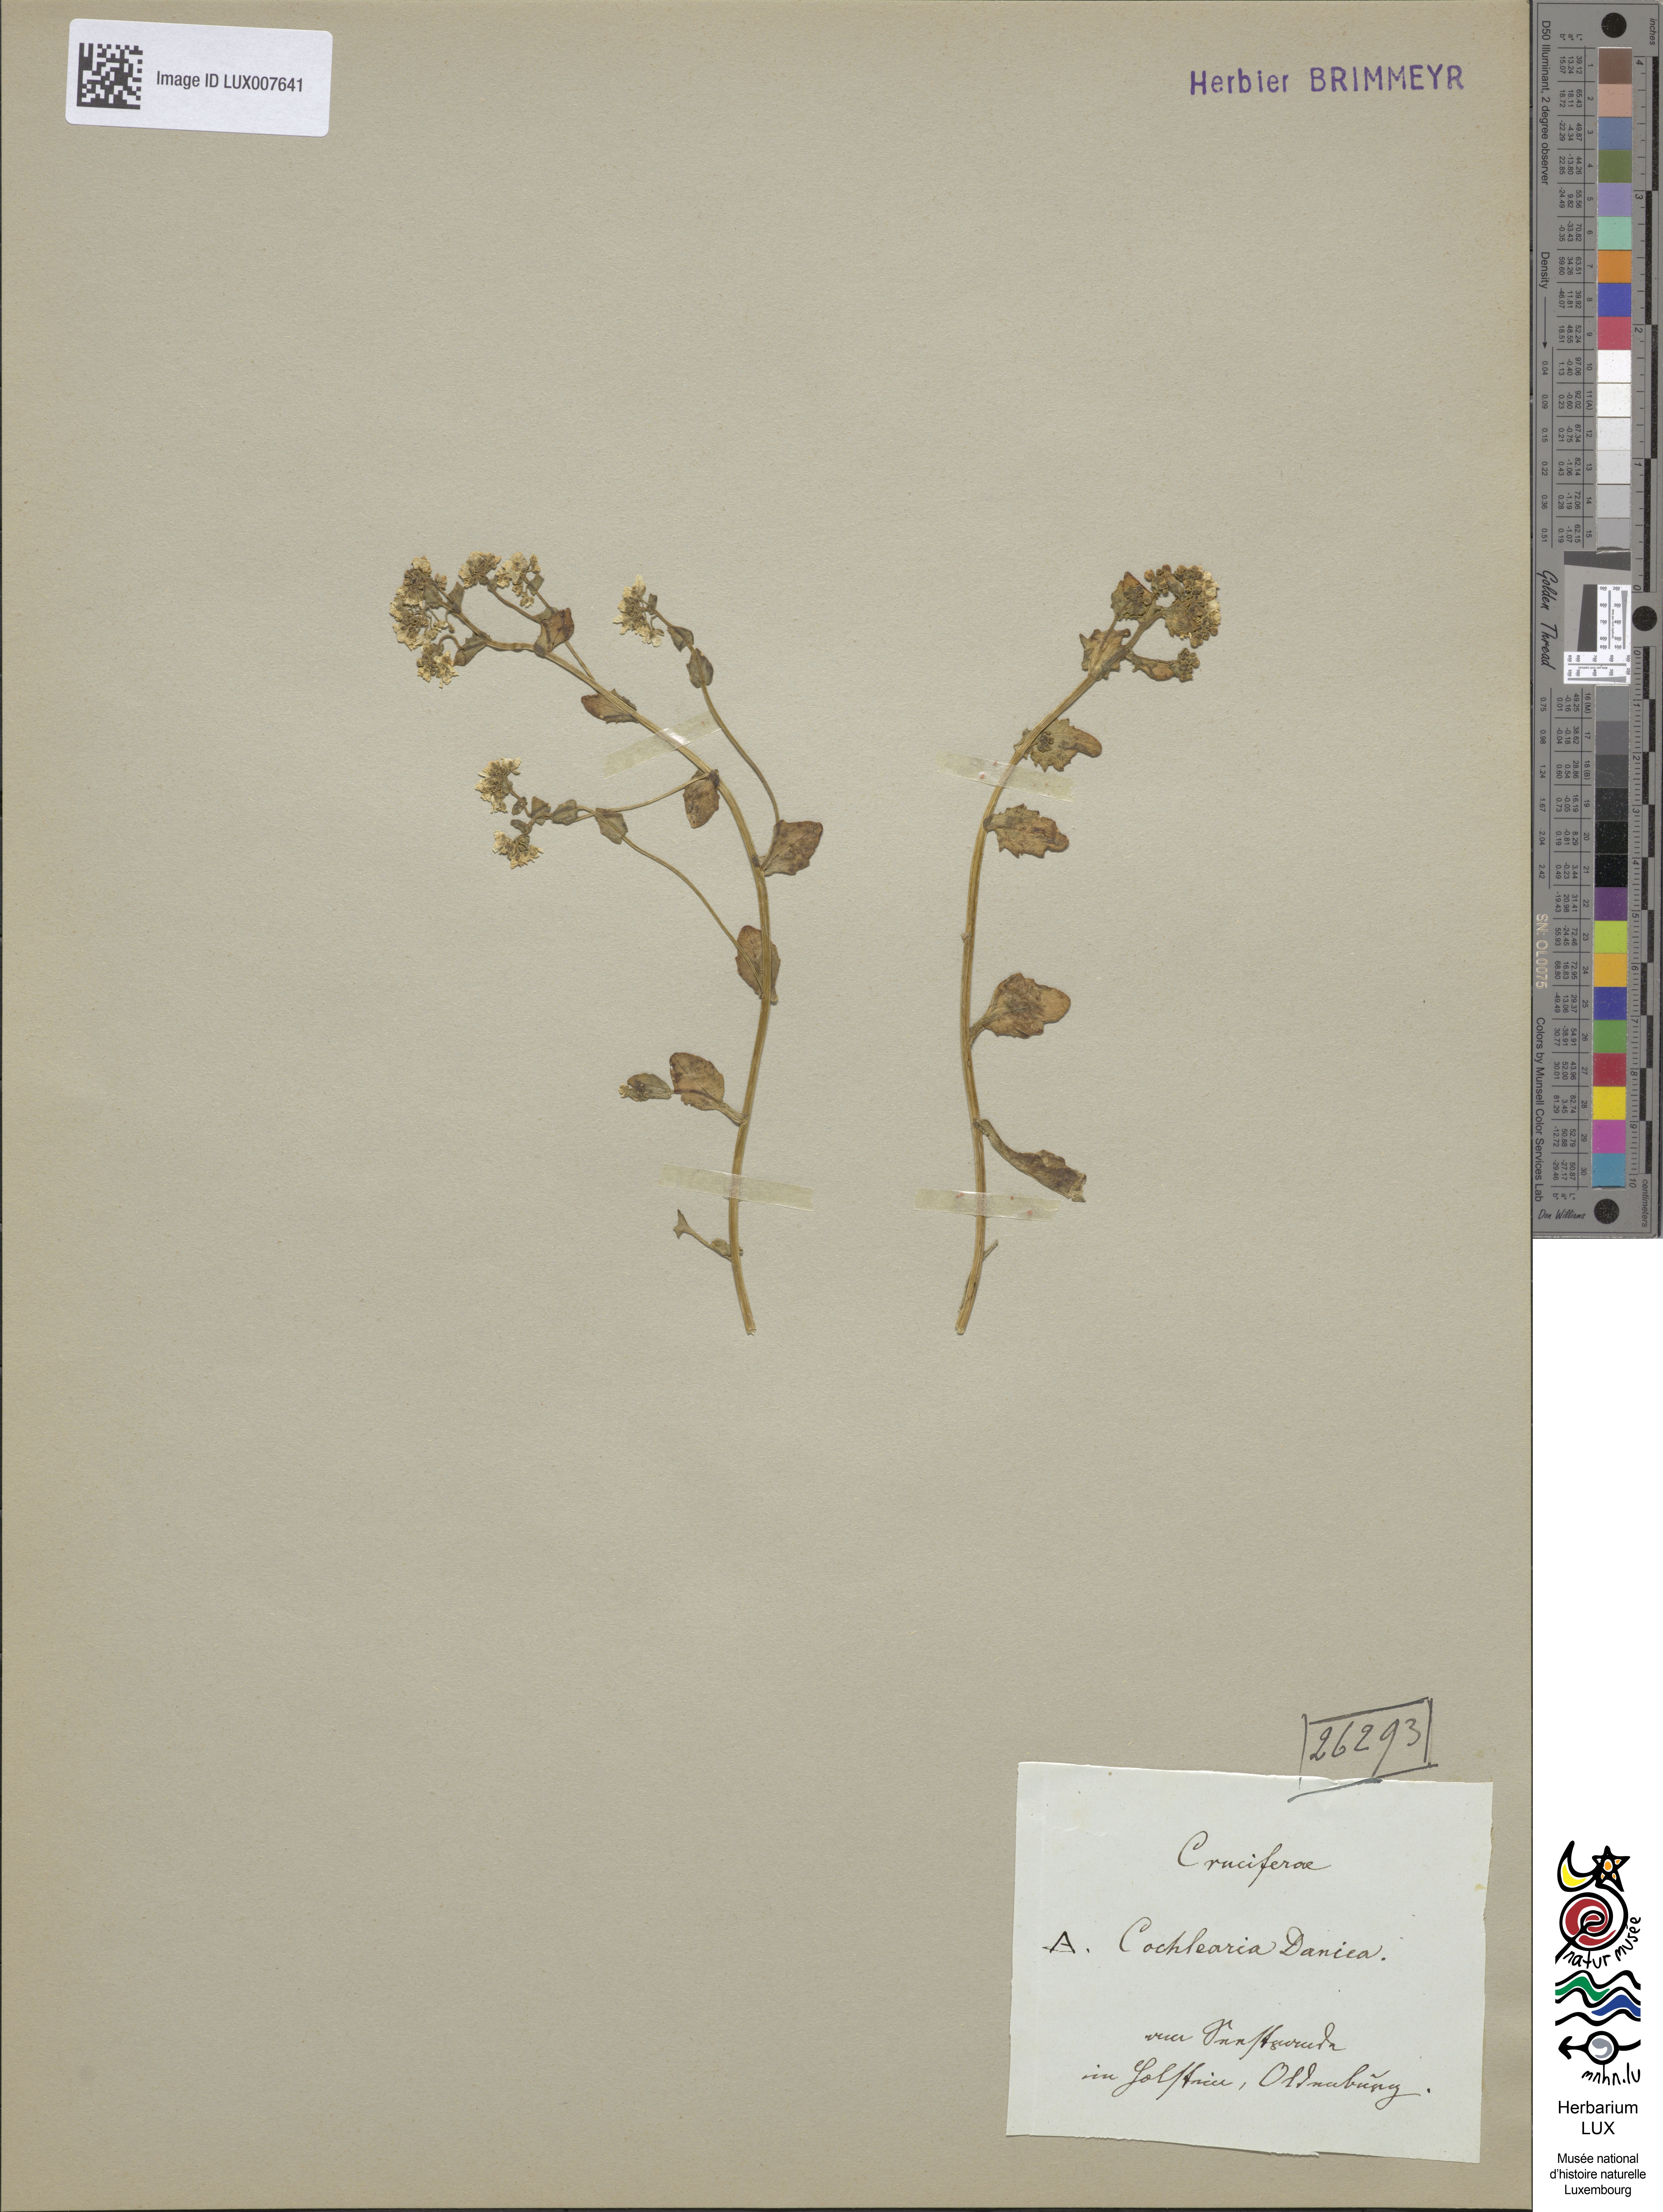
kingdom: Plantae
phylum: Tracheophyta
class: Magnoliopsida
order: Brassicales
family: Brassicaceae
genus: Cochlearia
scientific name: Cochlearia danica
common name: Early scurvygrass
